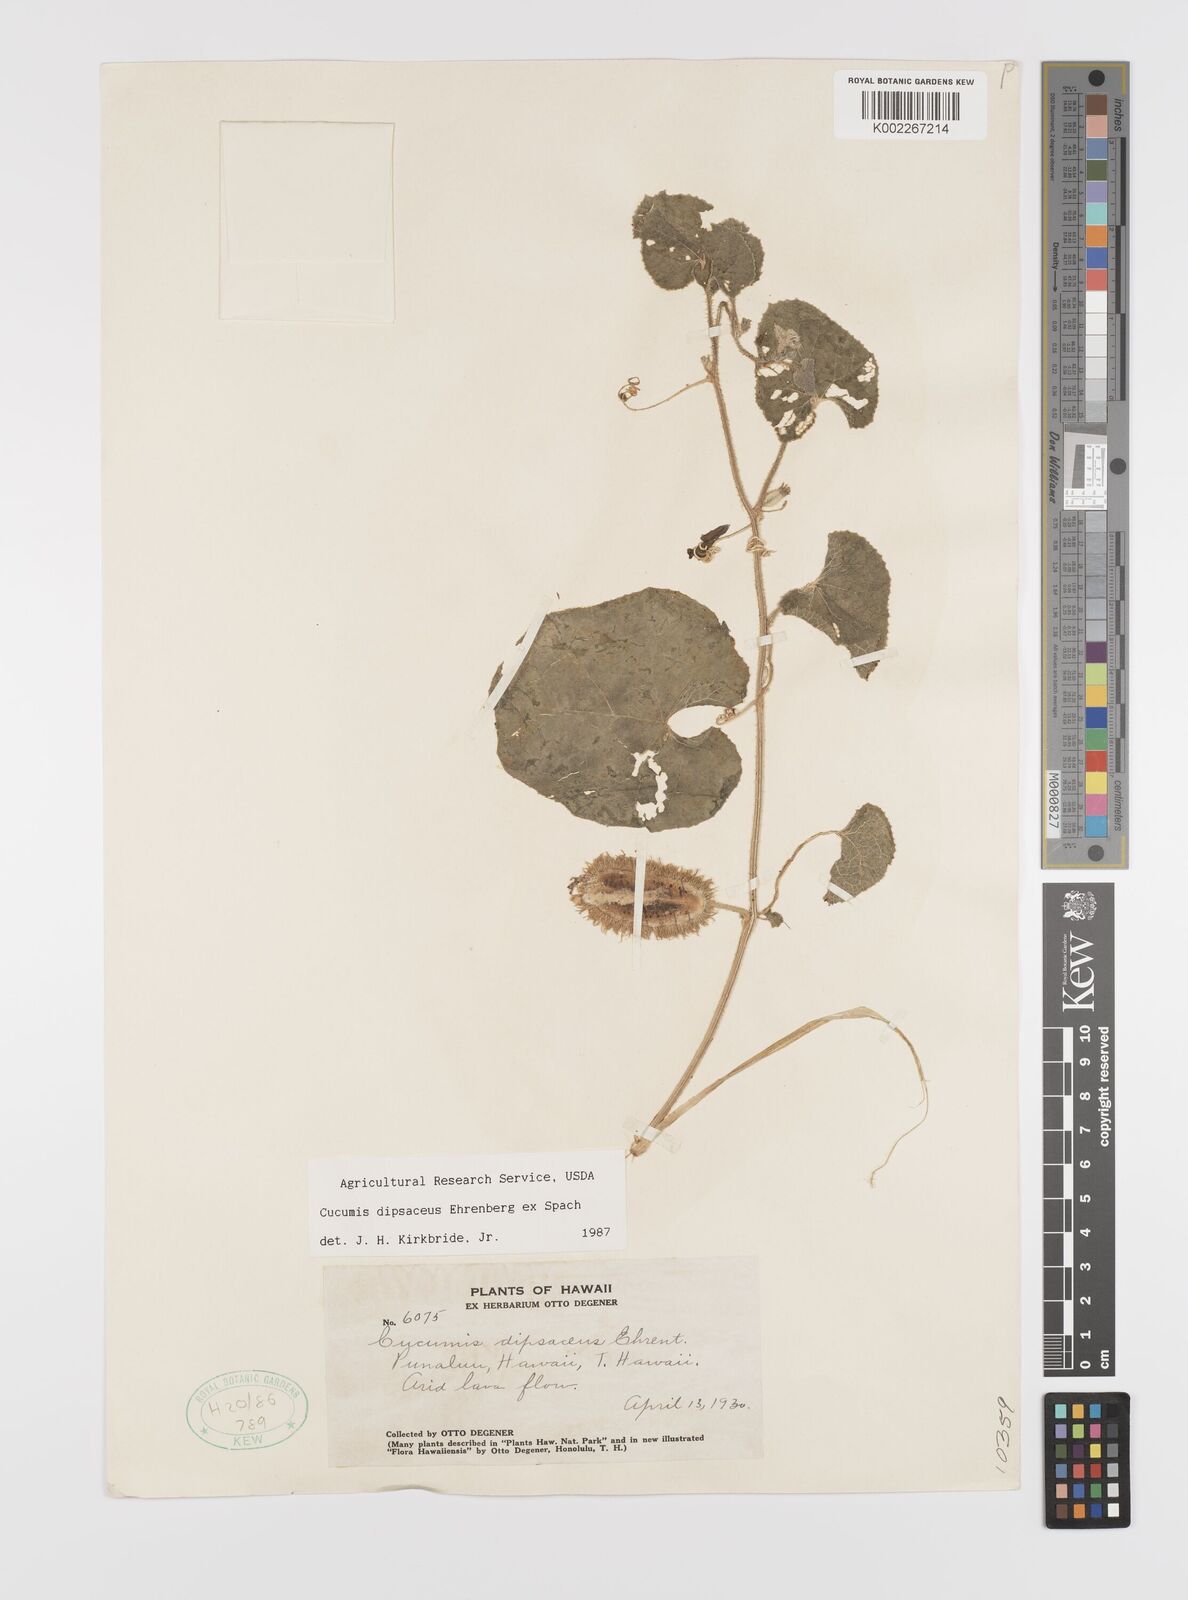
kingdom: Plantae
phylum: Tracheophyta
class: Magnoliopsida
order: Cucurbitales
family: Cucurbitaceae
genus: Cucumis
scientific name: Cucumis dipsaceus
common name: Hedgehog gourd
